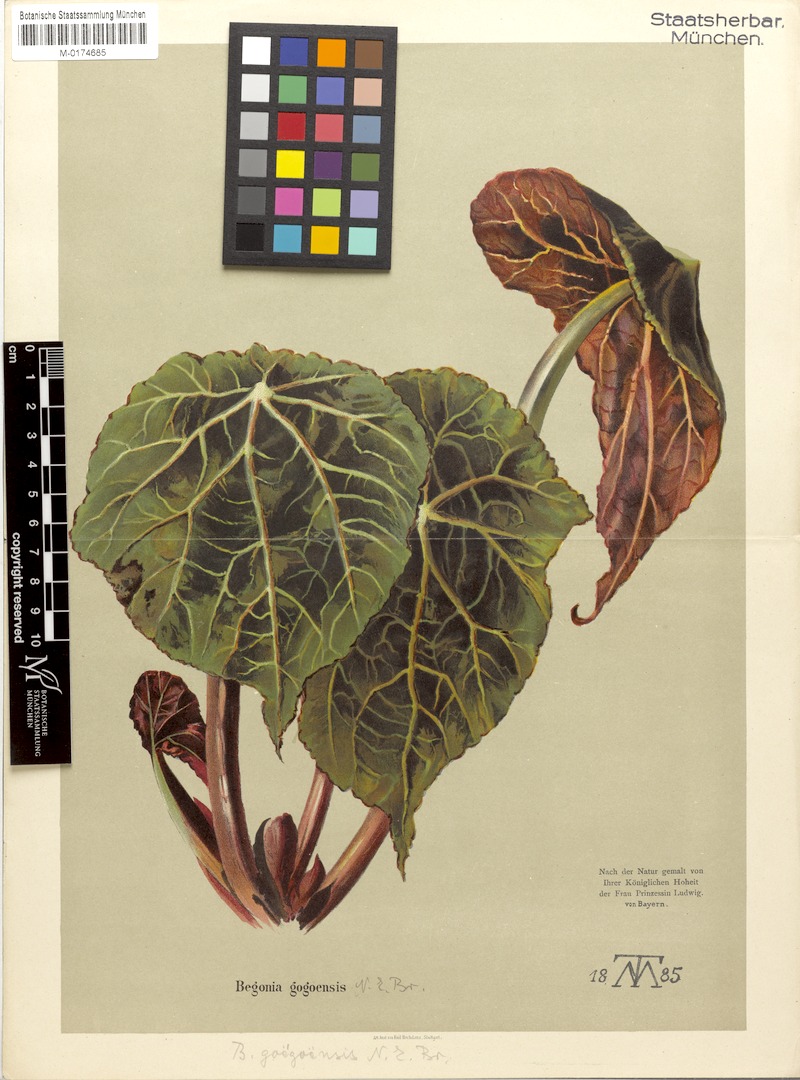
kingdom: Plantae
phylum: Tracheophyta
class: Magnoliopsida
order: Cucurbitales
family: Begoniaceae
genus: Begonia
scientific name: Begonia goegoensis
